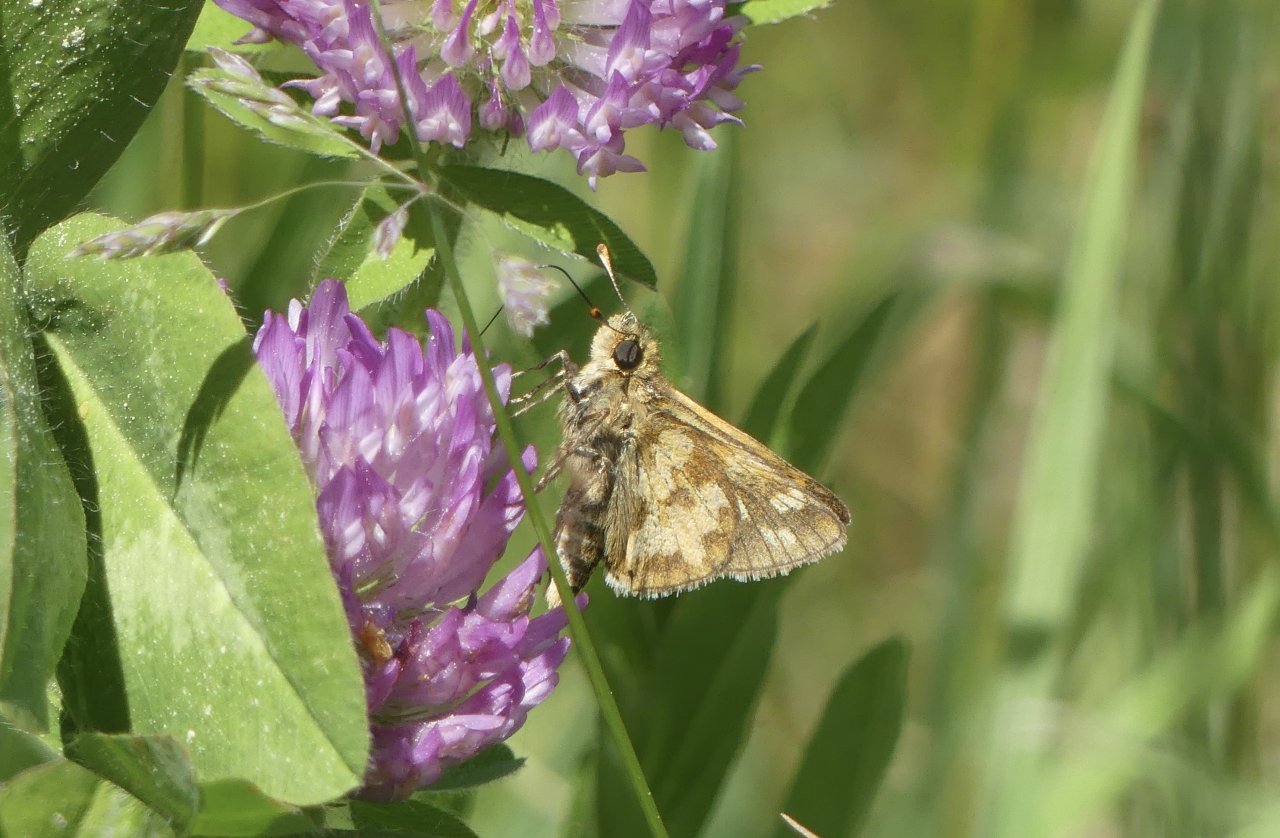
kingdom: Animalia
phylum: Arthropoda
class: Insecta
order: Lepidoptera
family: Hesperiidae
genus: Polites
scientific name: Polites coras
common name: Peck's Skipper
